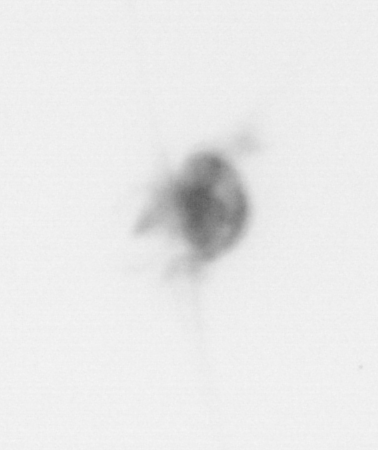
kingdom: Animalia
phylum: Arthropoda
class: Copepoda
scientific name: Copepoda
